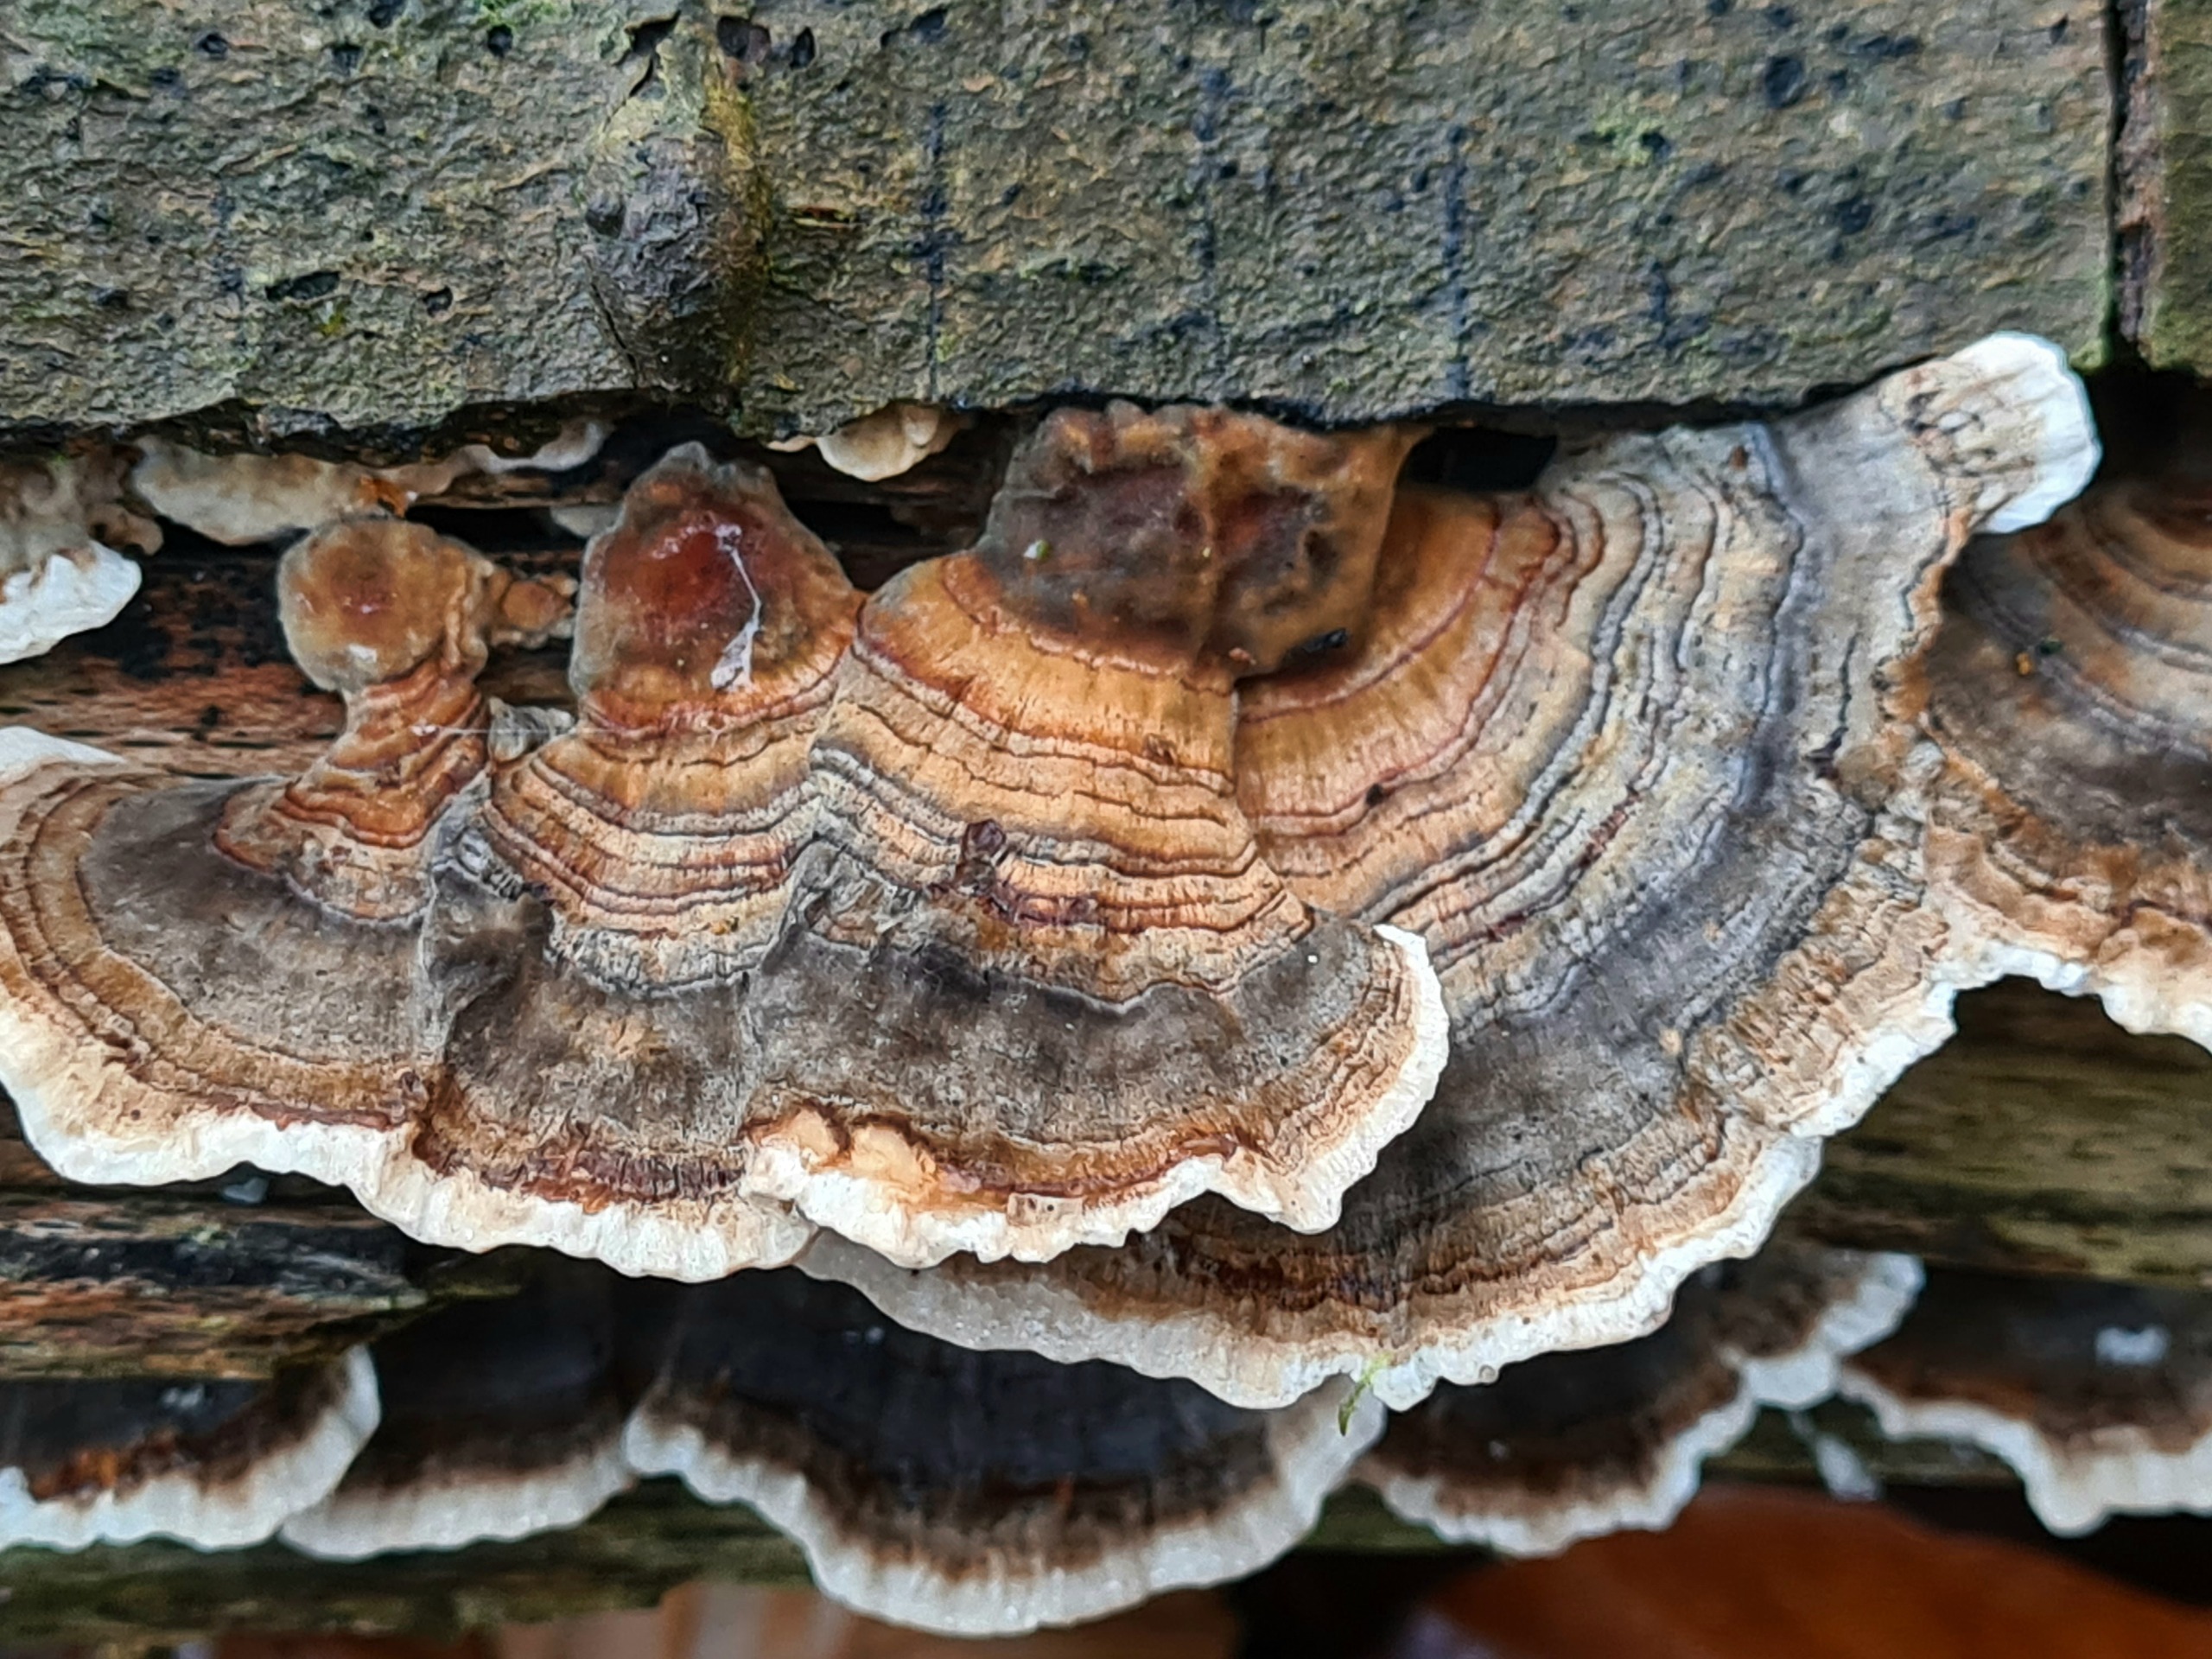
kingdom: Fungi
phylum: Basidiomycota
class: Agaricomycetes
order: Polyporales
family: Polyporaceae
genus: Trametes
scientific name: Trametes versicolor
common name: Broget læderporesvamp
